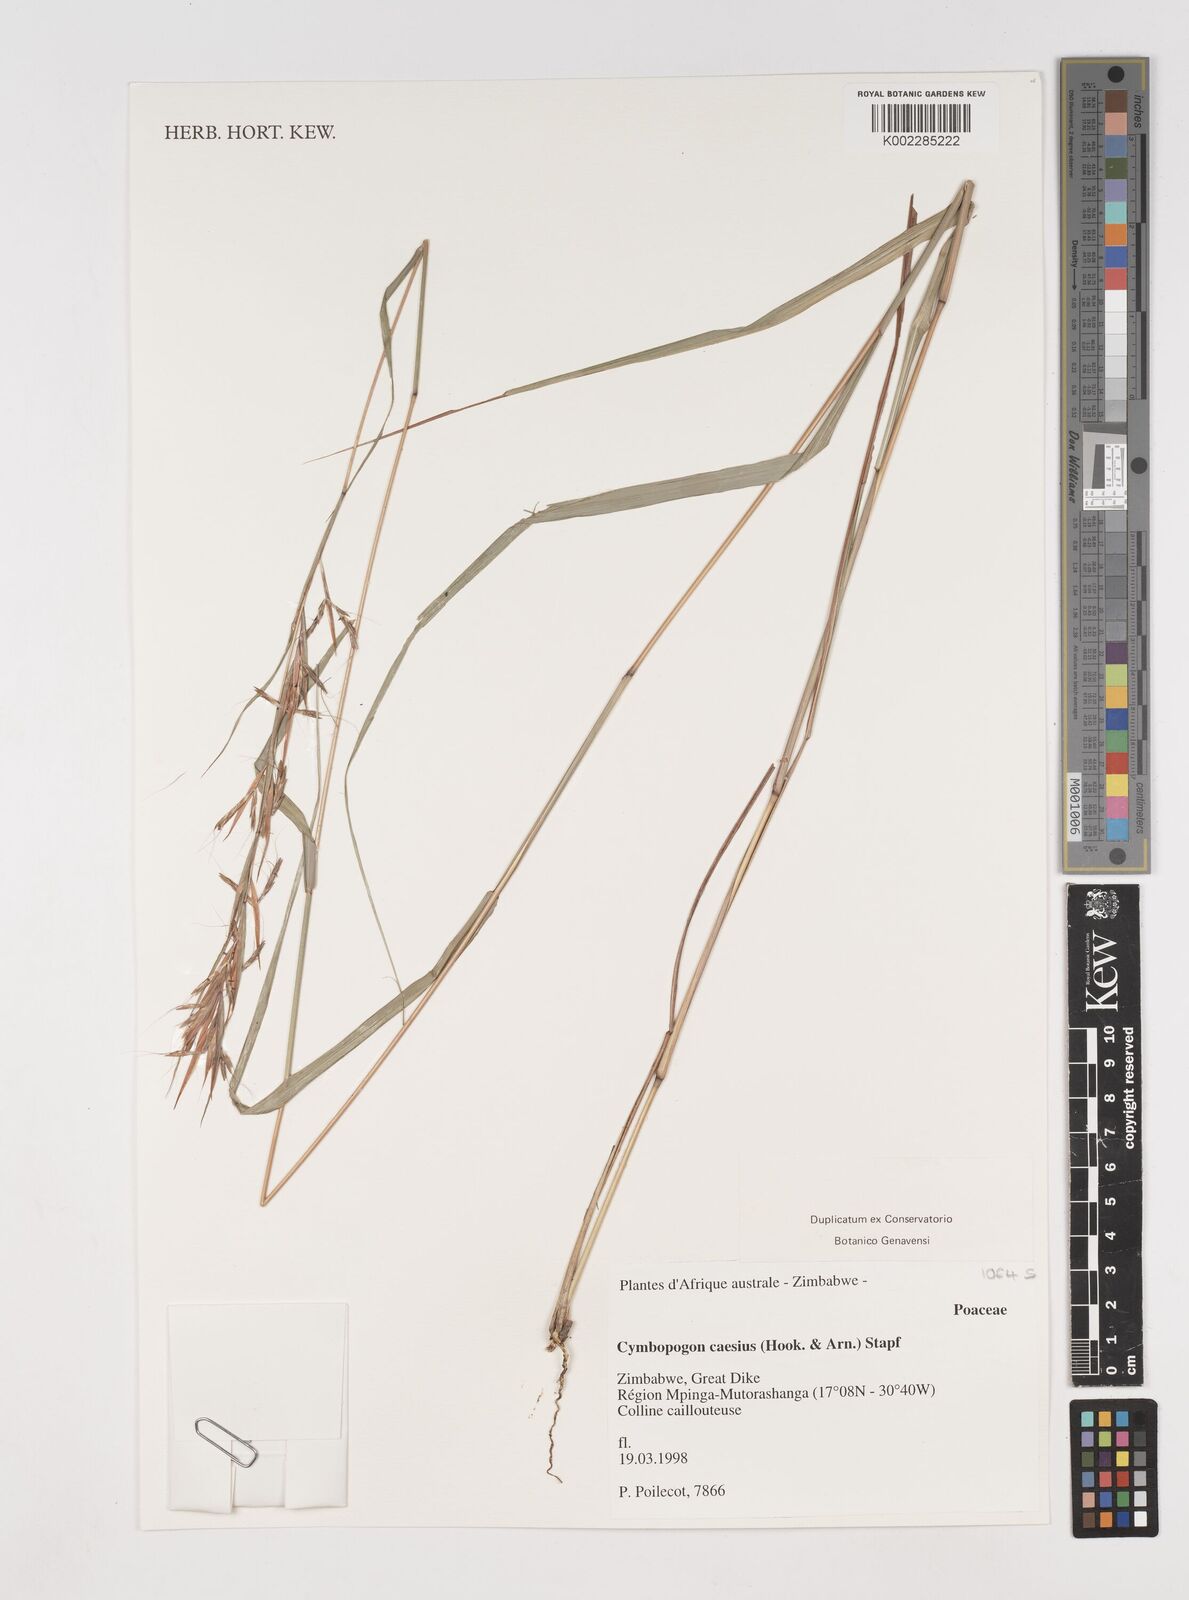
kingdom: Plantae
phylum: Tracheophyta
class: Liliopsida
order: Poales
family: Poaceae
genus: Cymbopogon
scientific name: Cymbopogon caesius
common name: Kachi grass
